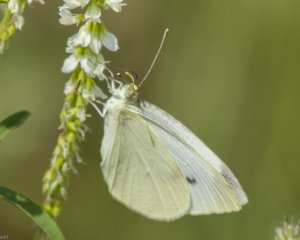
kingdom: Animalia
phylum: Arthropoda
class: Insecta
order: Lepidoptera
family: Pieridae
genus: Pieris
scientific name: Pieris rapae
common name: Cabbage White
